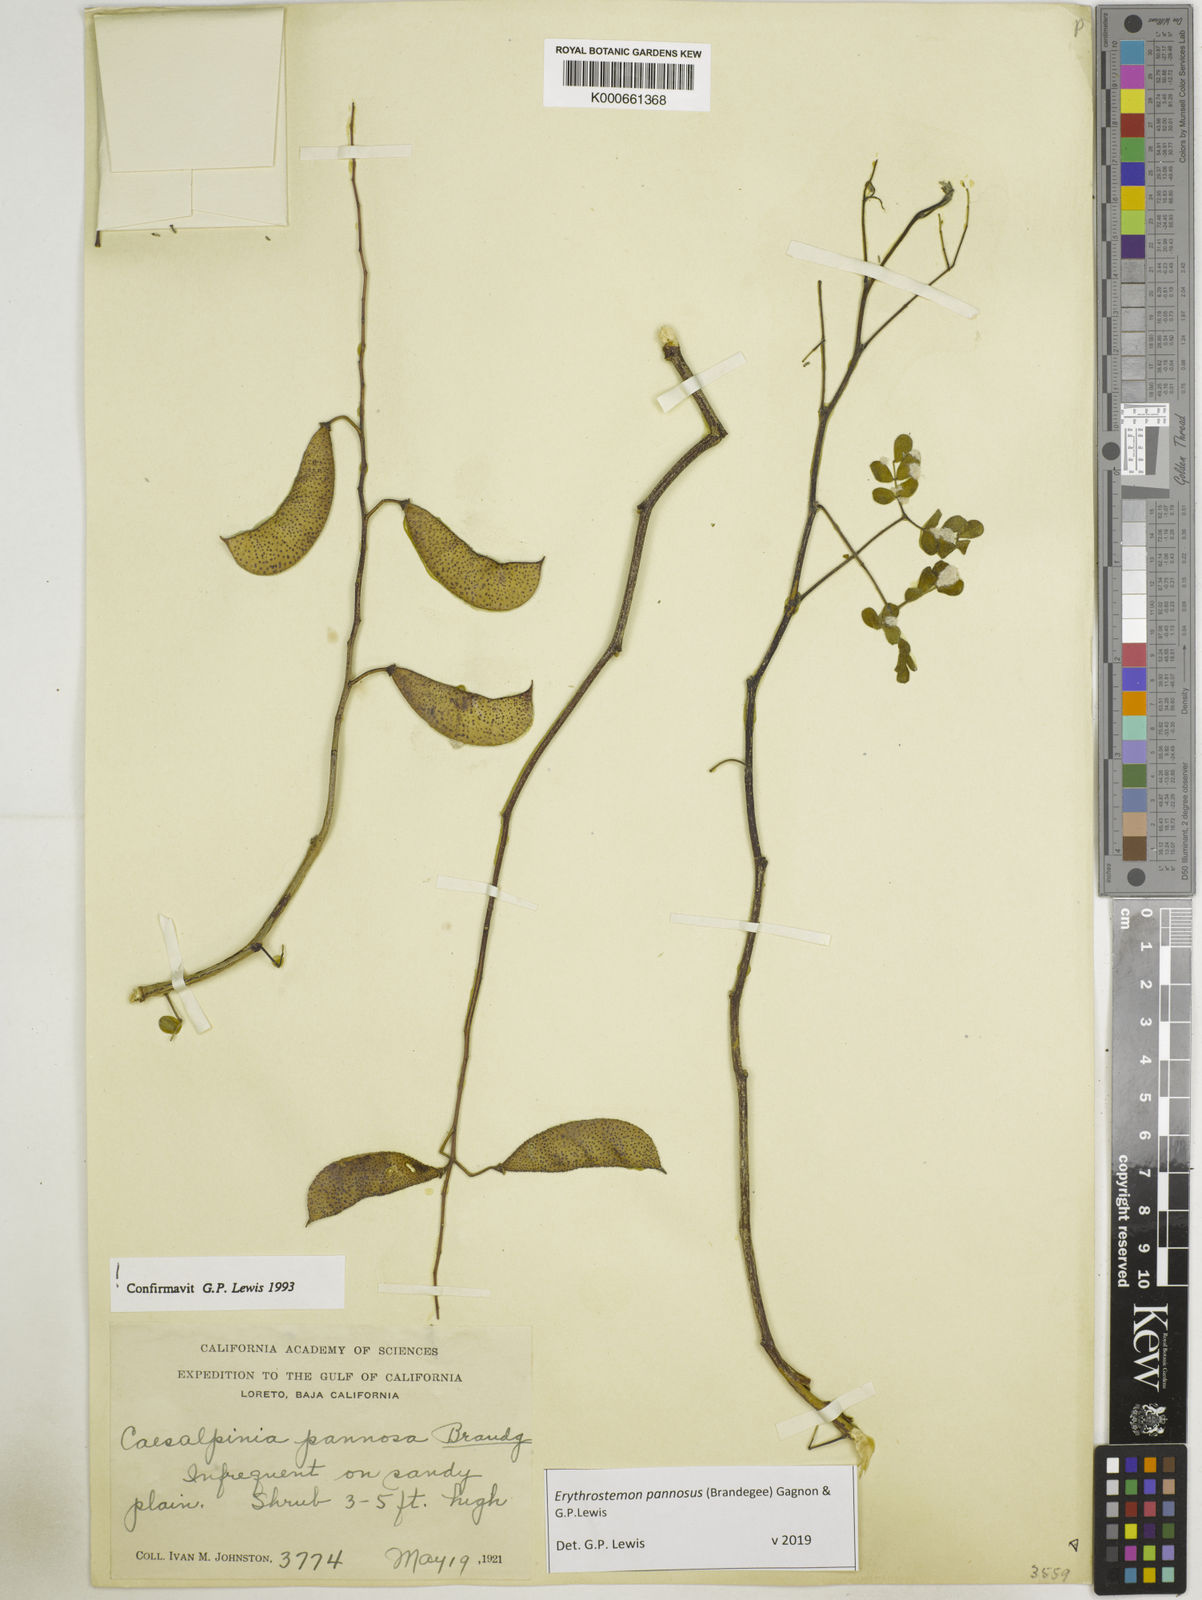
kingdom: Plantae
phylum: Tracheophyta
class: Magnoliopsida
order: Fabales
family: Fabaceae
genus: Erythrostemon
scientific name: Erythrostemon pannosus
